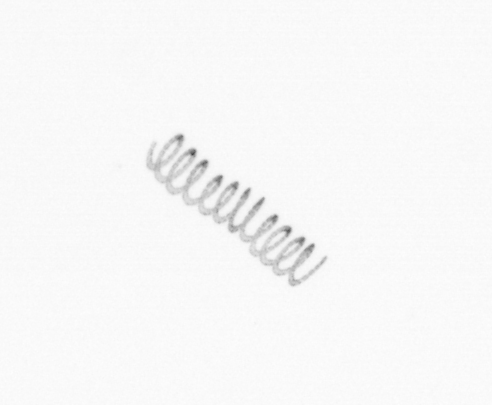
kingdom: Chromista
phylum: Ochrophyta
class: Bacillariophyceae
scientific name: Bacillariophyceae
